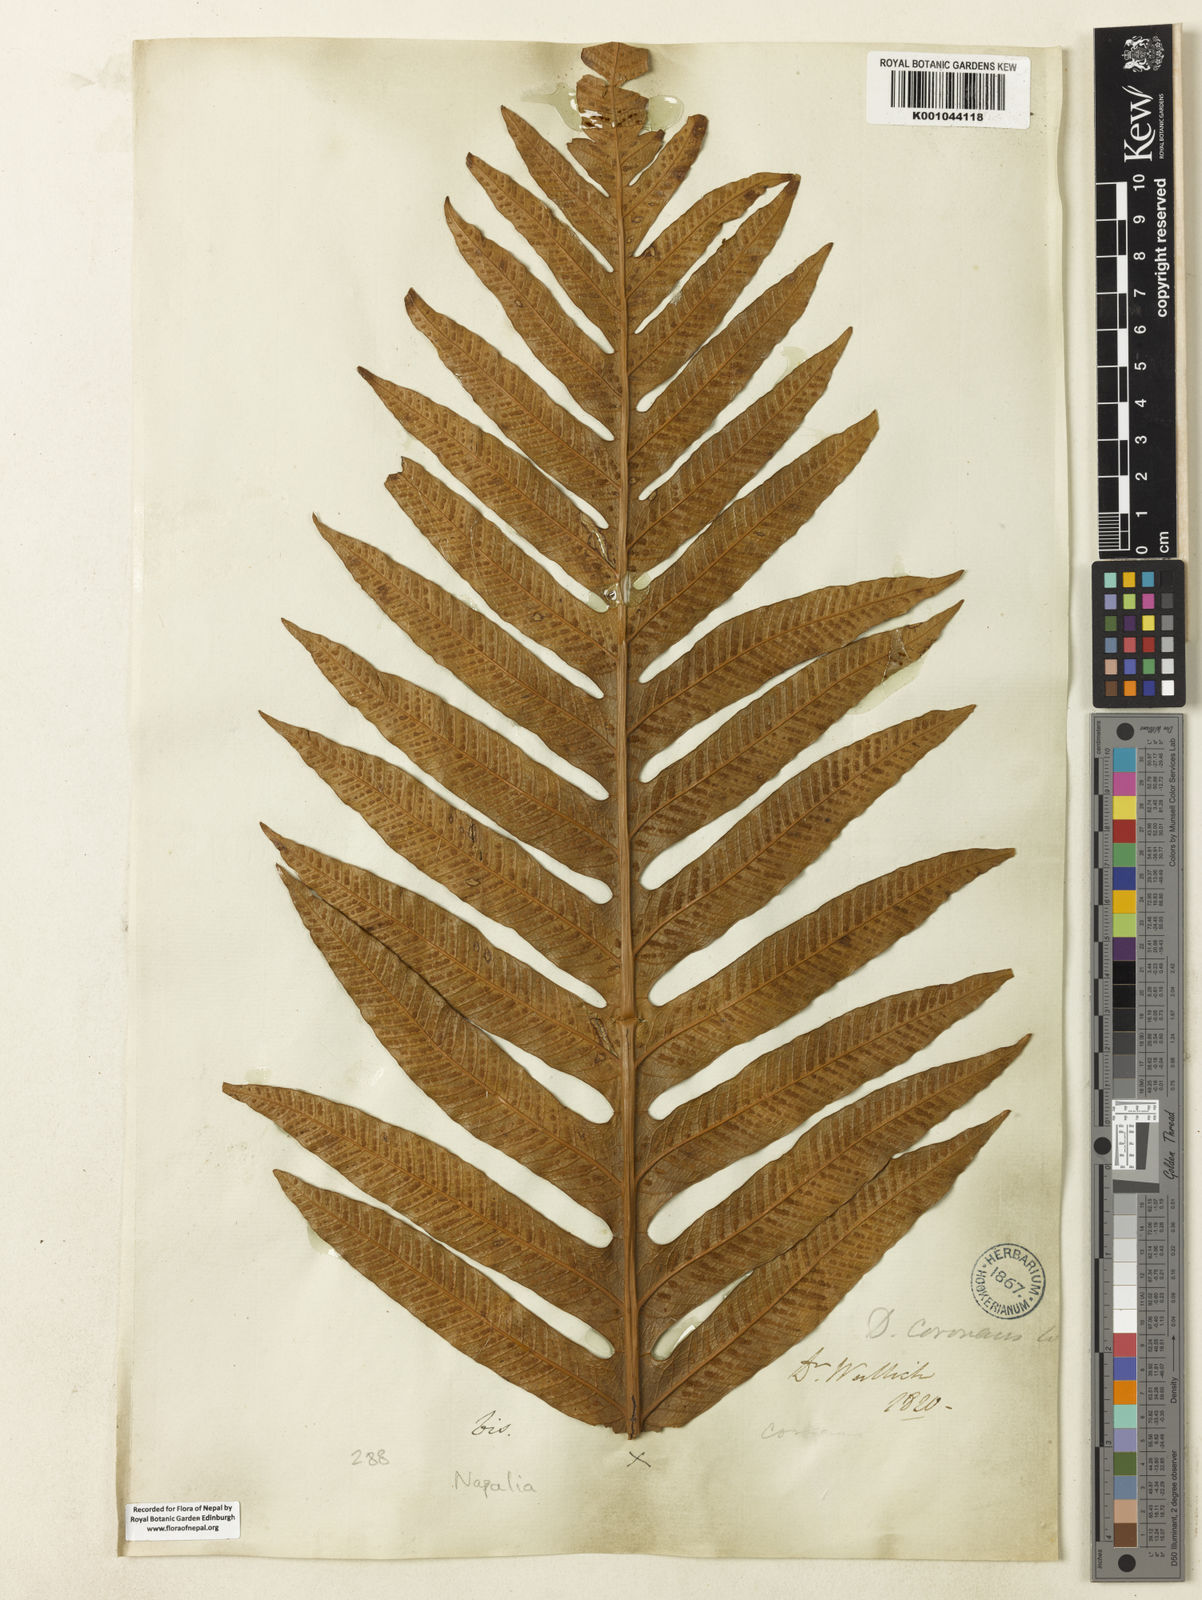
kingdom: Plantae
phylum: Tracheophyta
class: Polypodiopsida
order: Polypodiales
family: Polypodiaceae
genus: Drynaria
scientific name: Drynaria coronans
